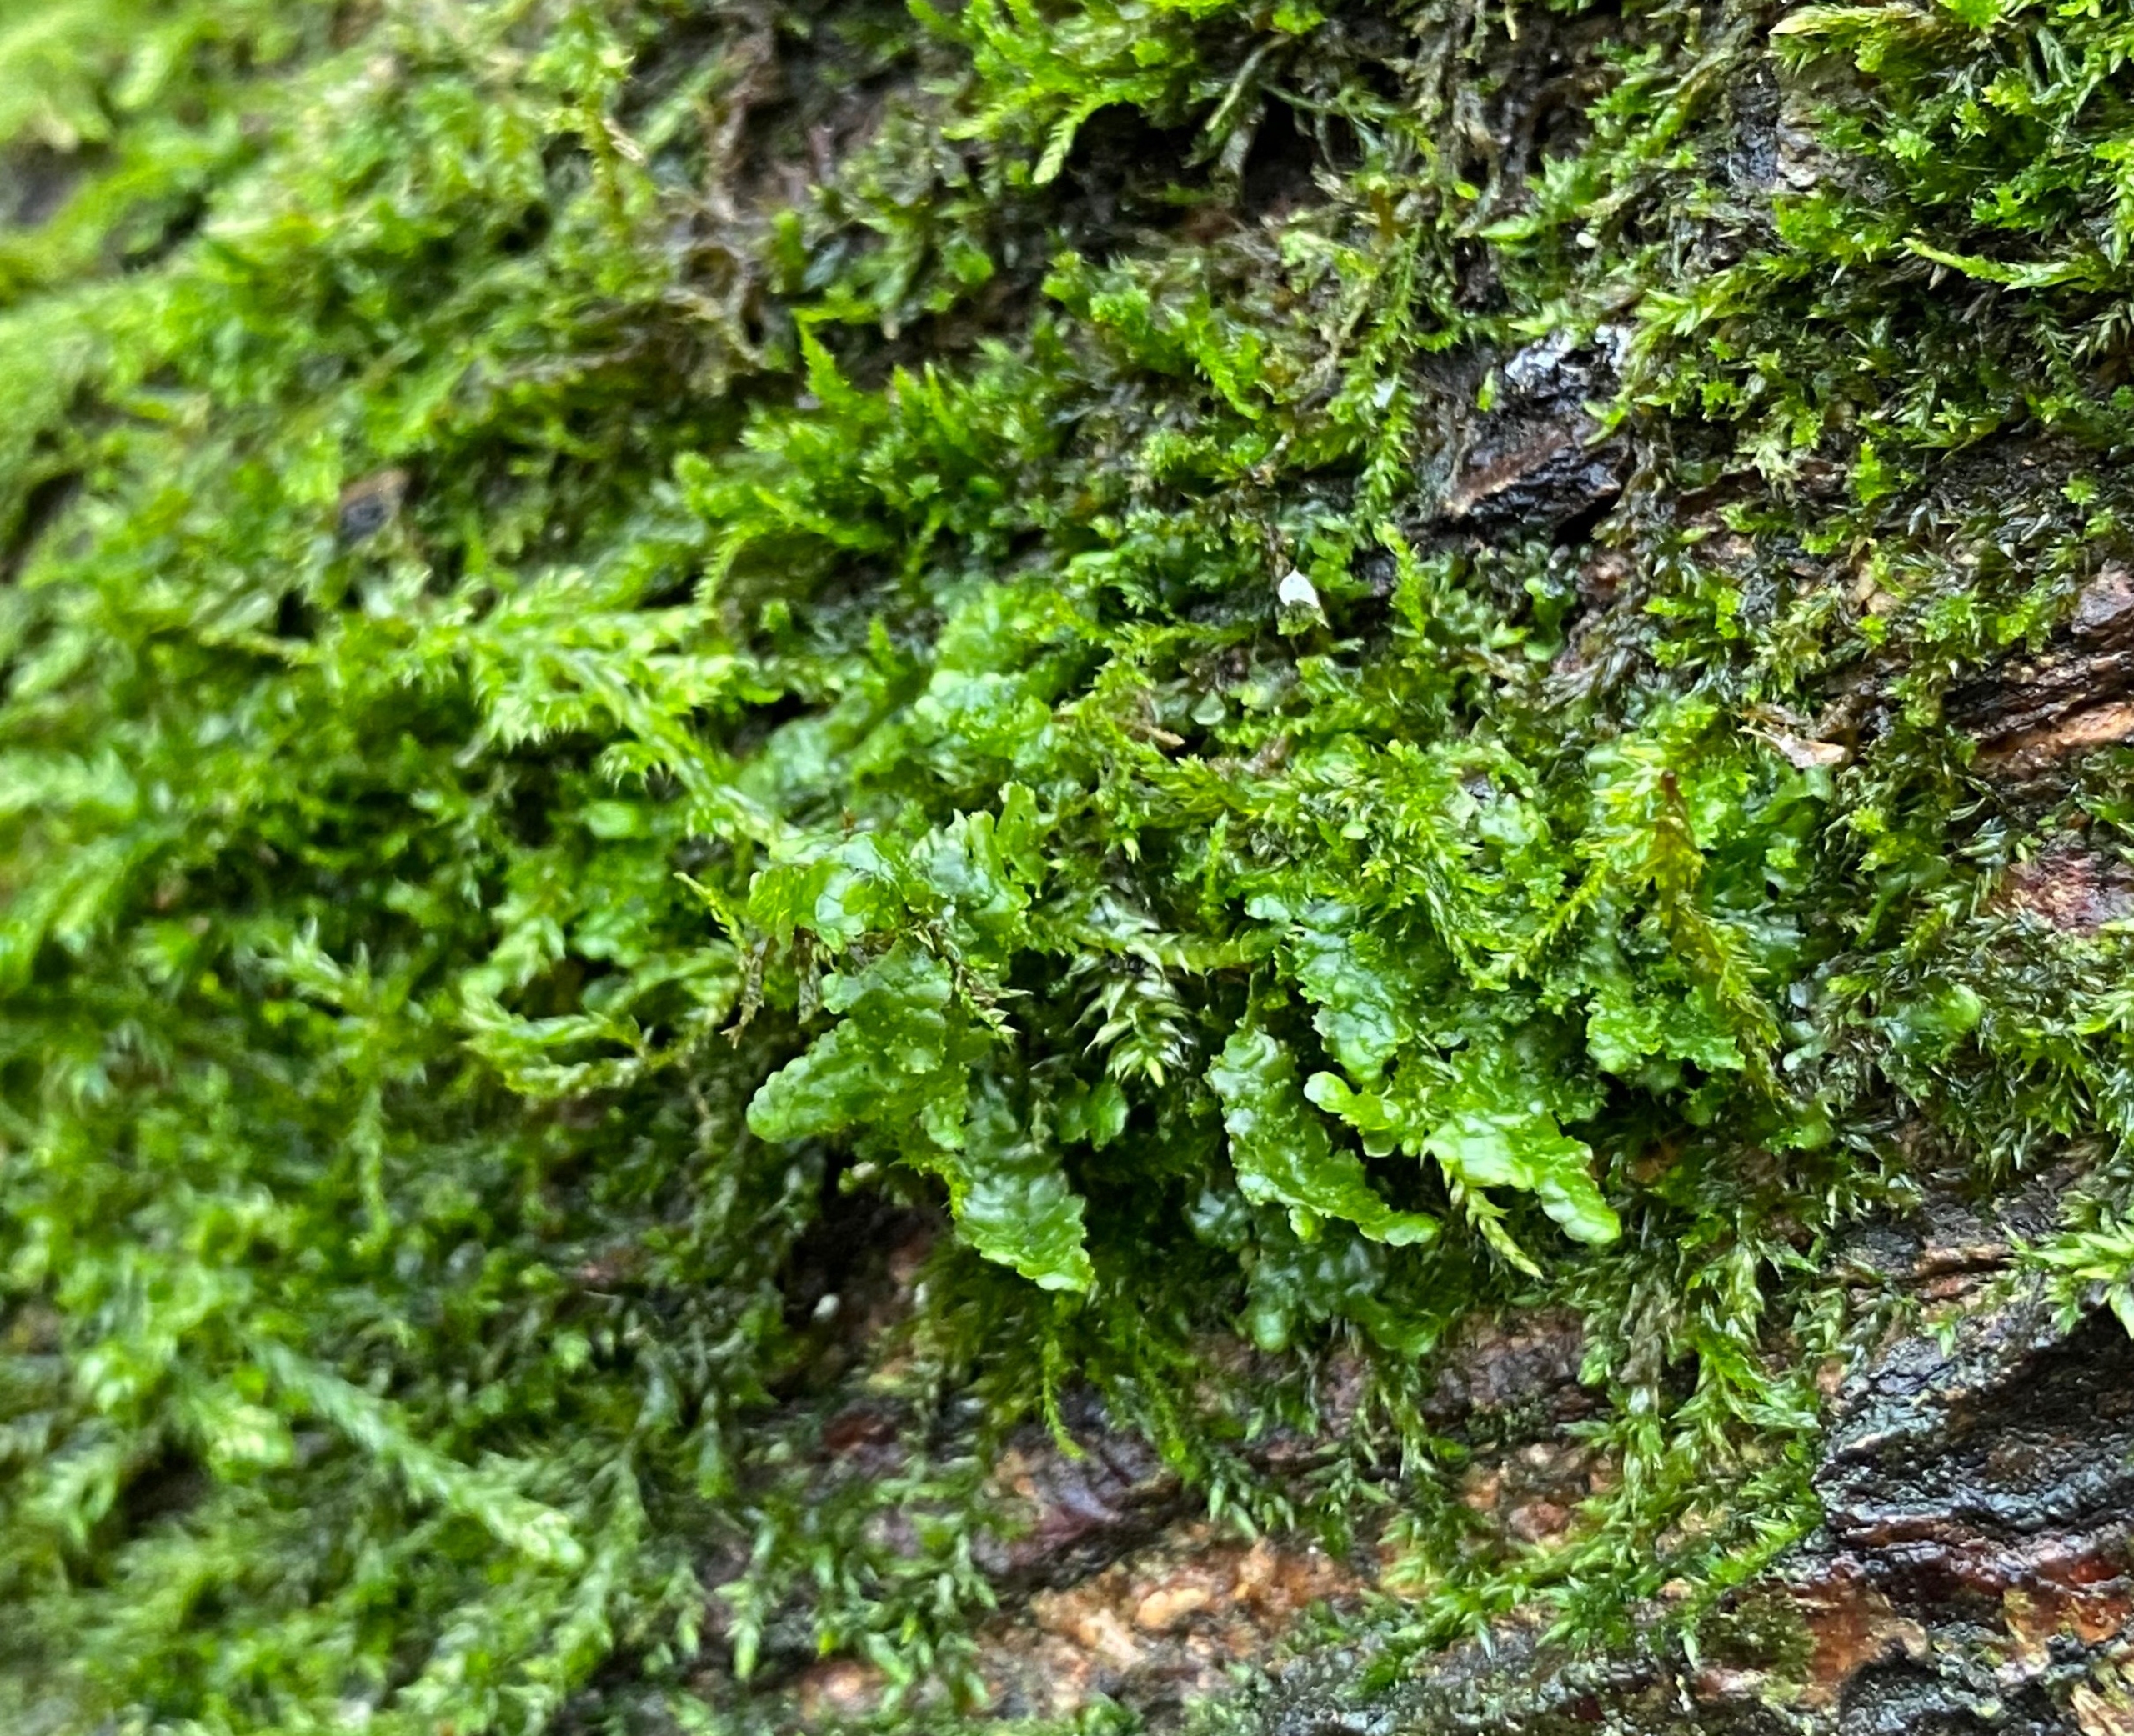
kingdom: Plantae
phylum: Marchantiophyta
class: Jungermanniopsida
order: Porellales
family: Radulaceae
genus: Radula
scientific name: Radula complanata
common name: Almindelig spartelmos
